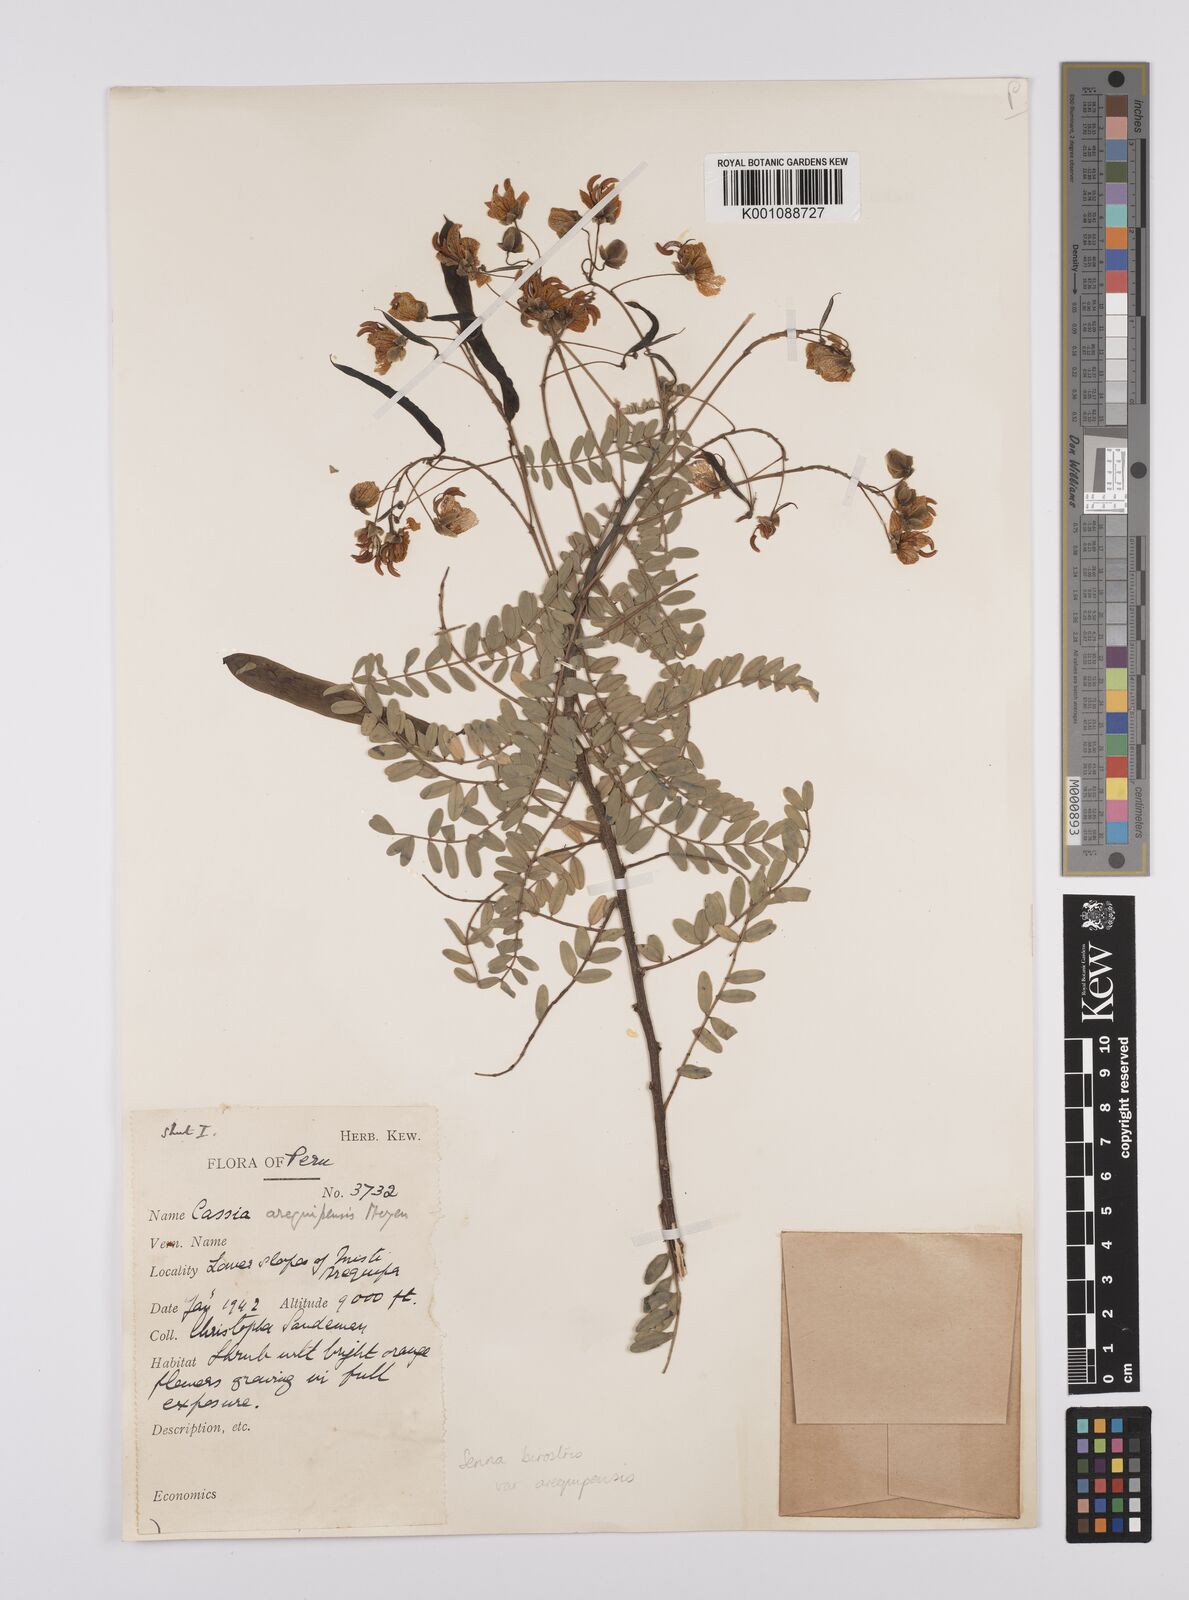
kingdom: Plantae
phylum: Tracheophyta
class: Magnoliopsida
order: Fabales
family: Fabaceae
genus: Senna
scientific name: Senna birostris
